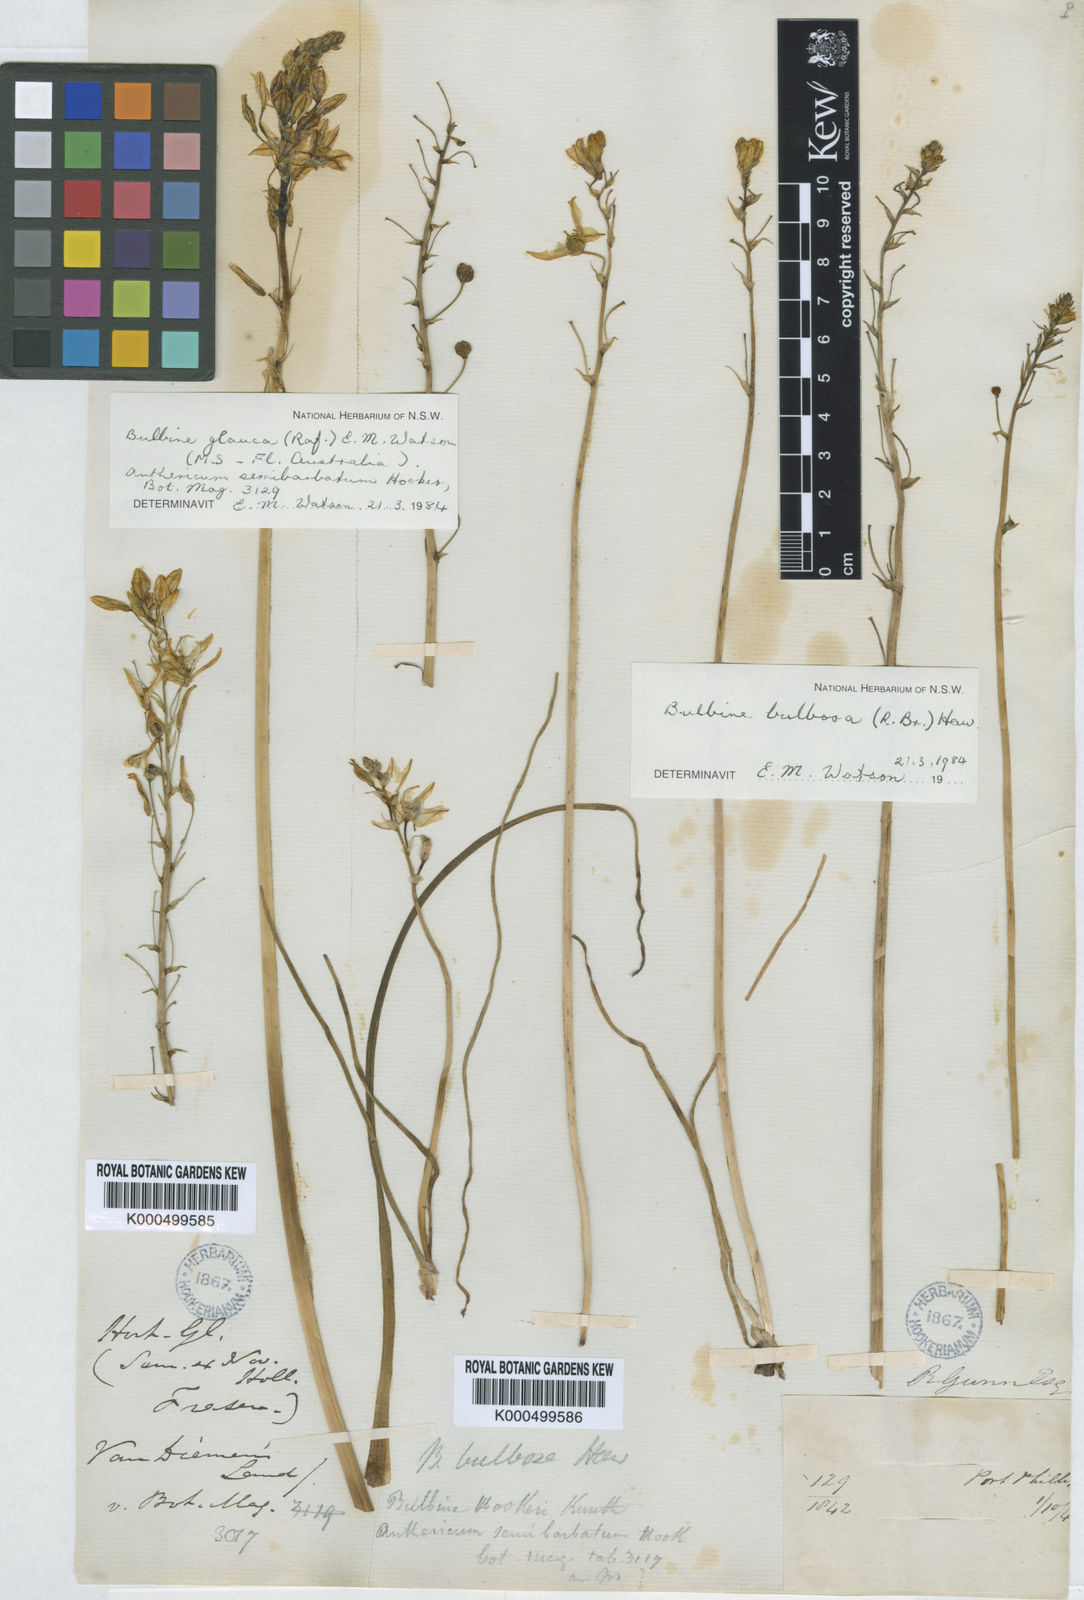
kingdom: Plantae
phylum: Tracheophyta
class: Liliopsida
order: Asparagales
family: Asphodelaceae
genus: Bulbine
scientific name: Bulbine glauca
